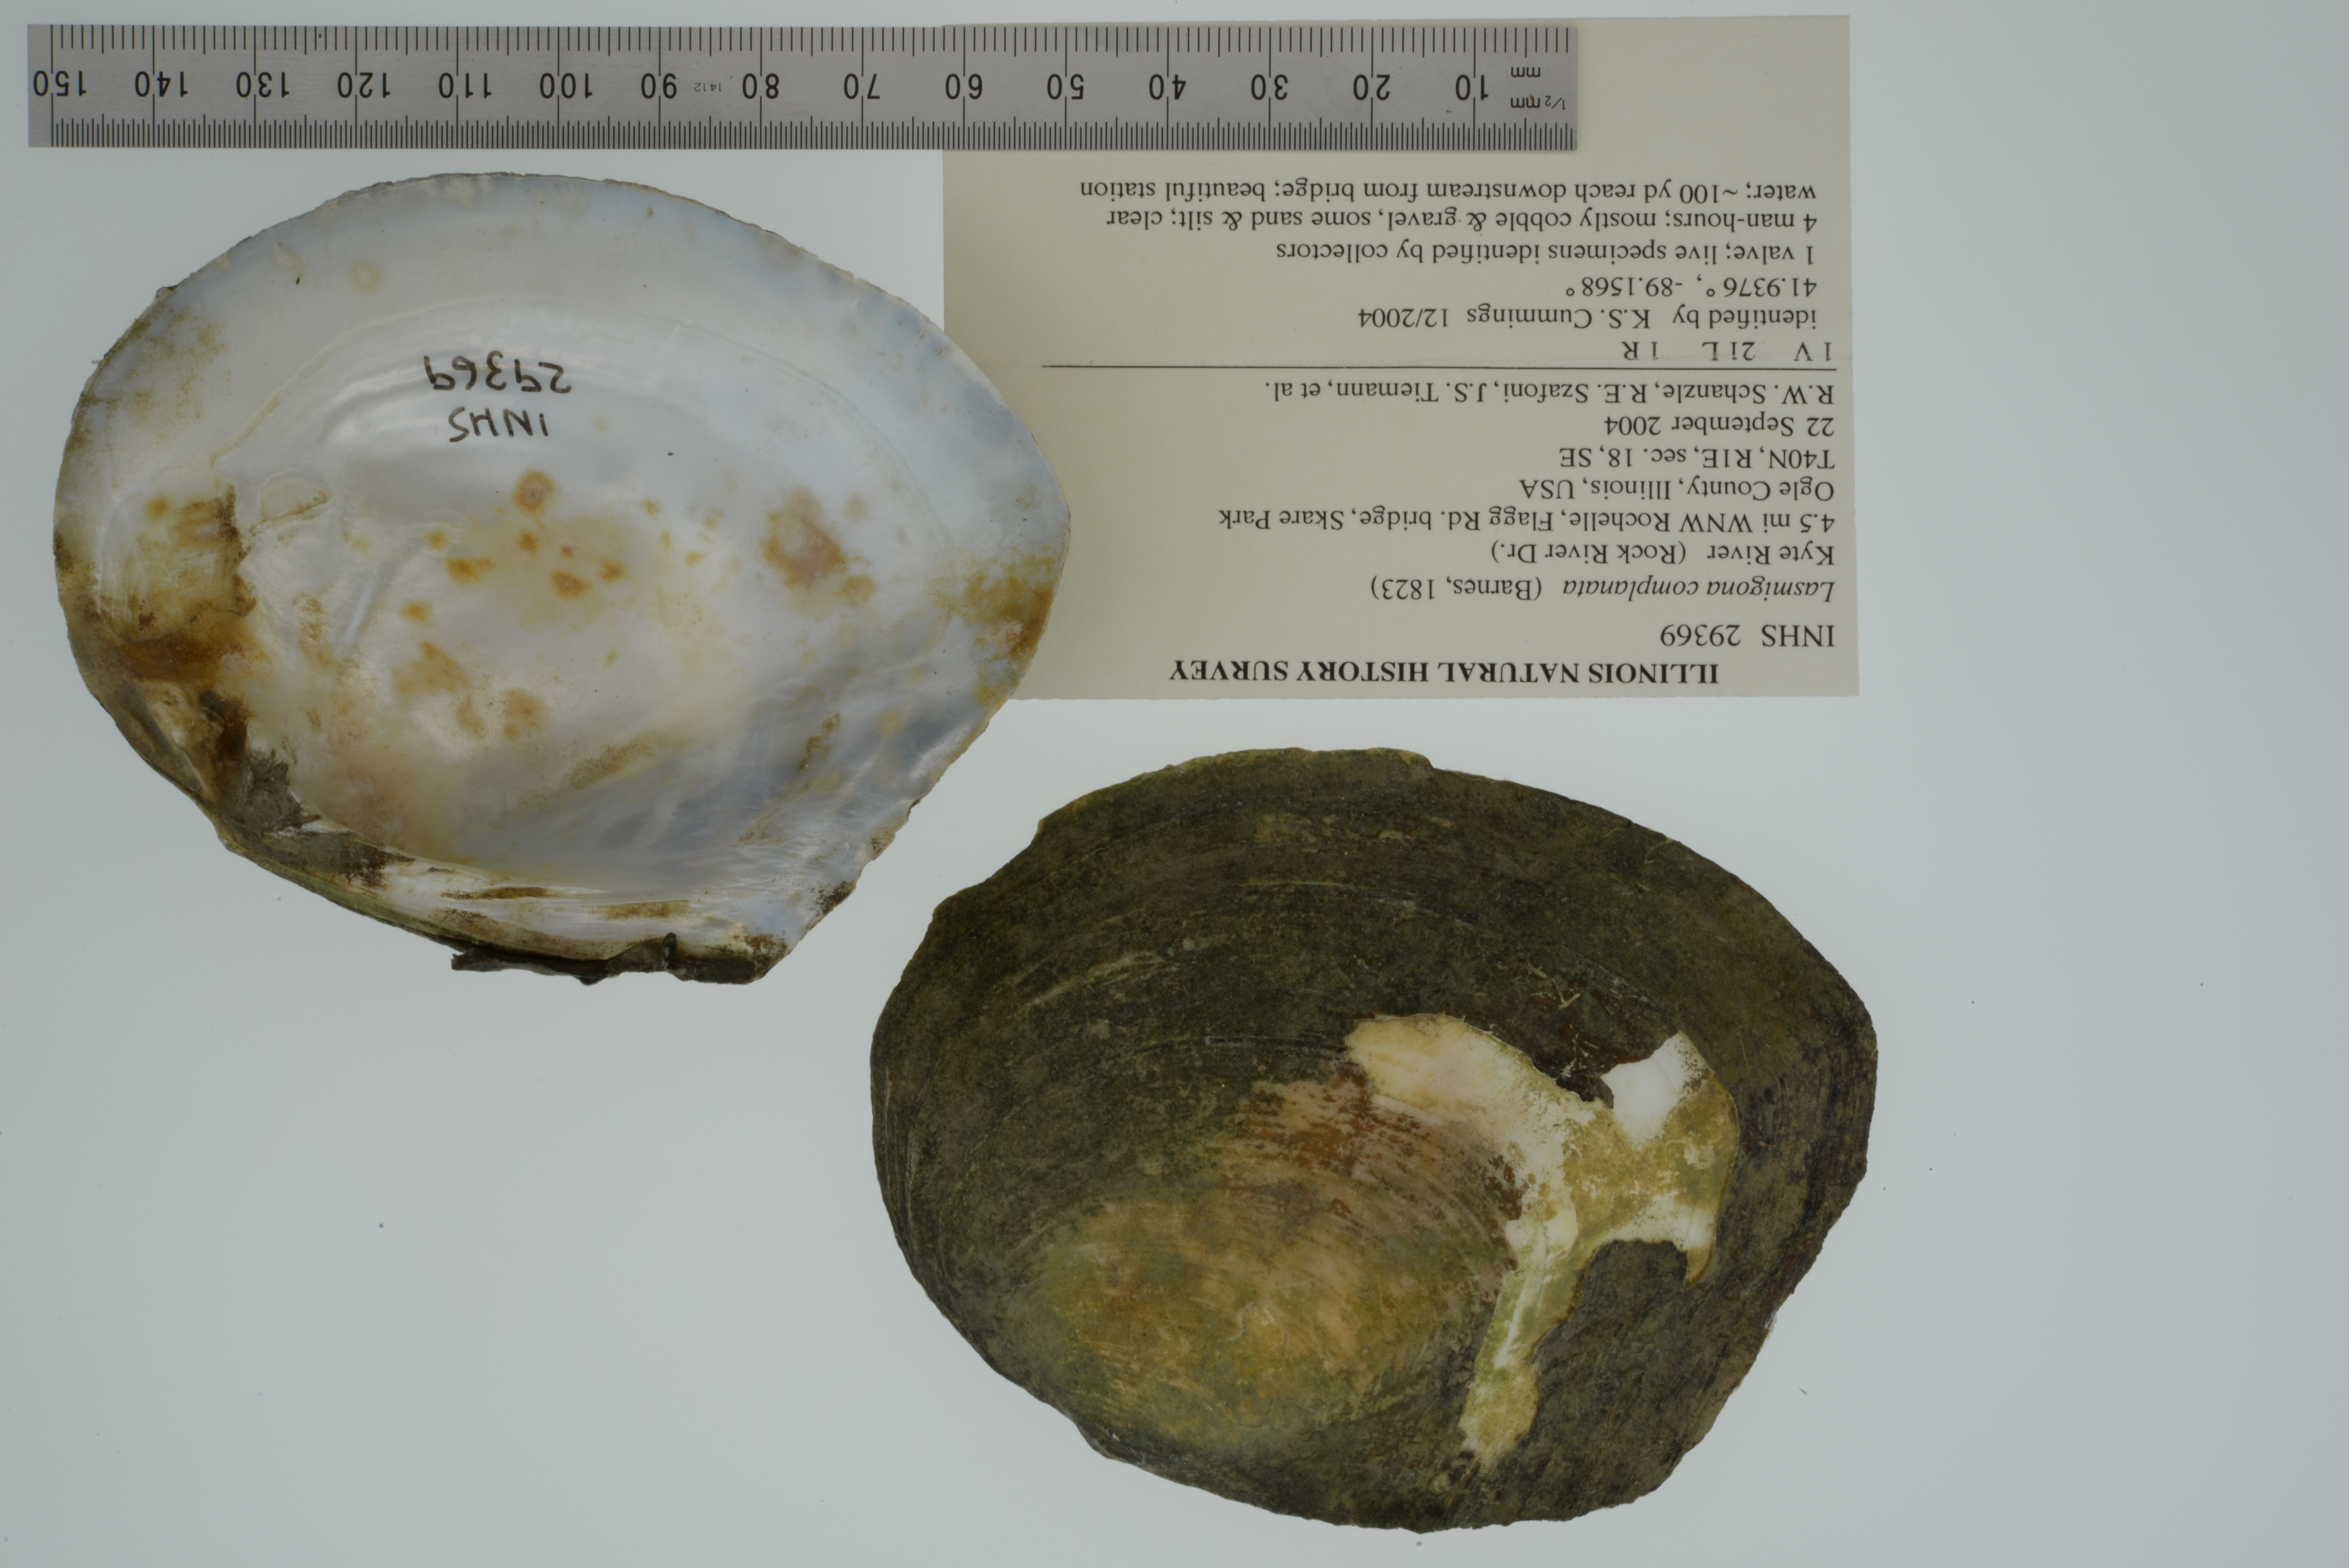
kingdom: Animalia
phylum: Mollusca
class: Bivalvia
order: Unionida
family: Unionidae
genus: Lasmigona
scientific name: Lasmigona complanata
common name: White heelsplitter
